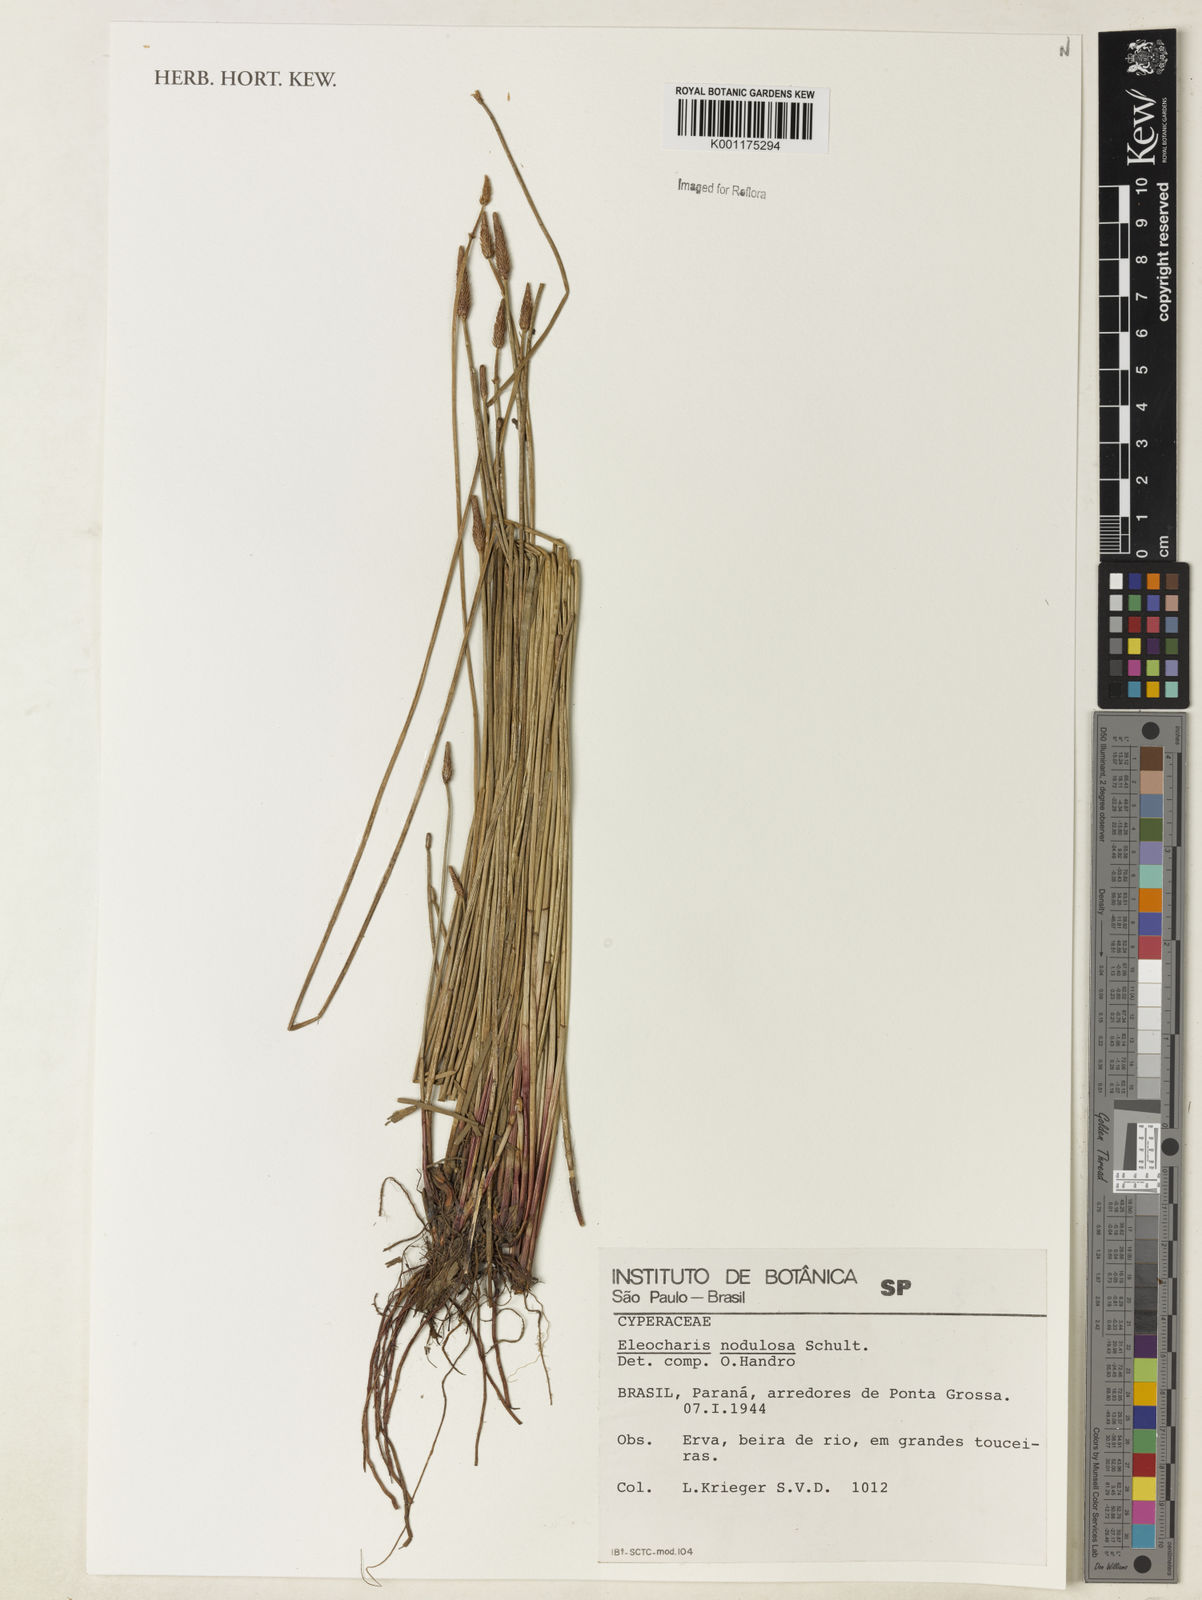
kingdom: Plantae
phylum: Tracheophyta
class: Liliopsida
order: Poales
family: Cyperaceae
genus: Eleocharis
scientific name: Eleocharis montana
